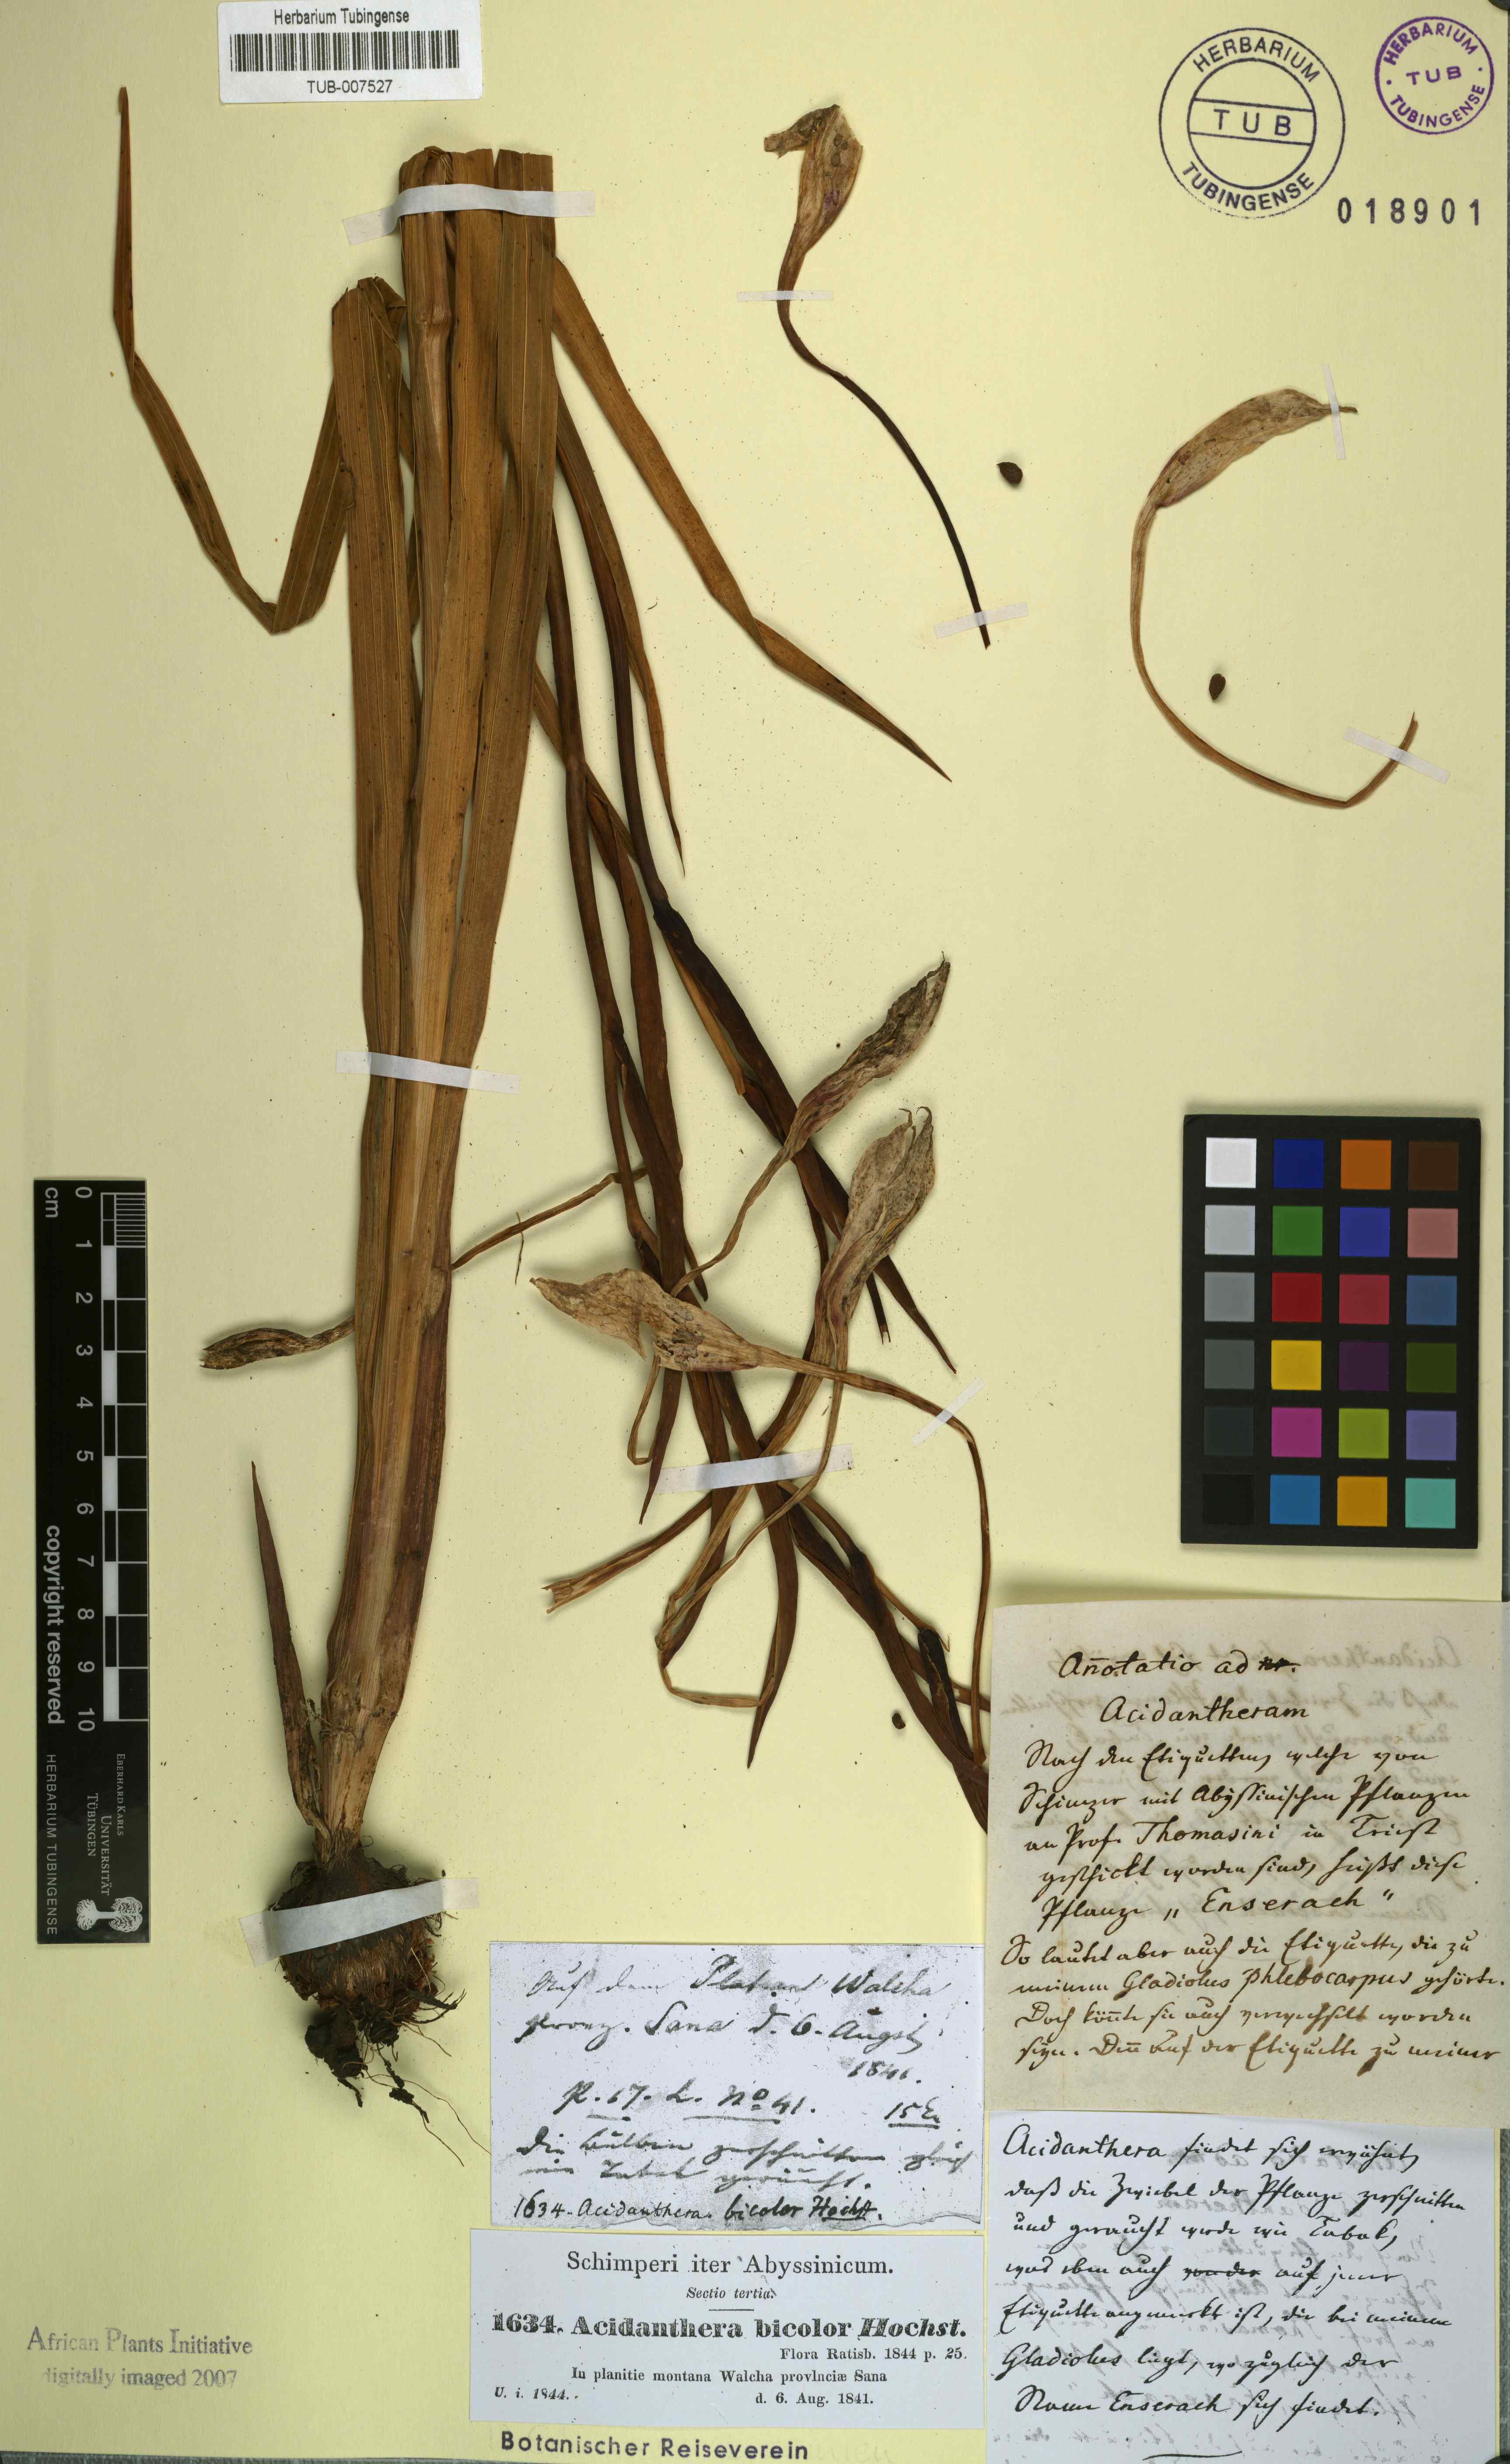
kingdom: Plantae
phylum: Tracheophyta
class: Liliopsida
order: Asparagales
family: Iridaceae
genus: Gladiolus
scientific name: Gladiolus murielae
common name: Acidanthera
